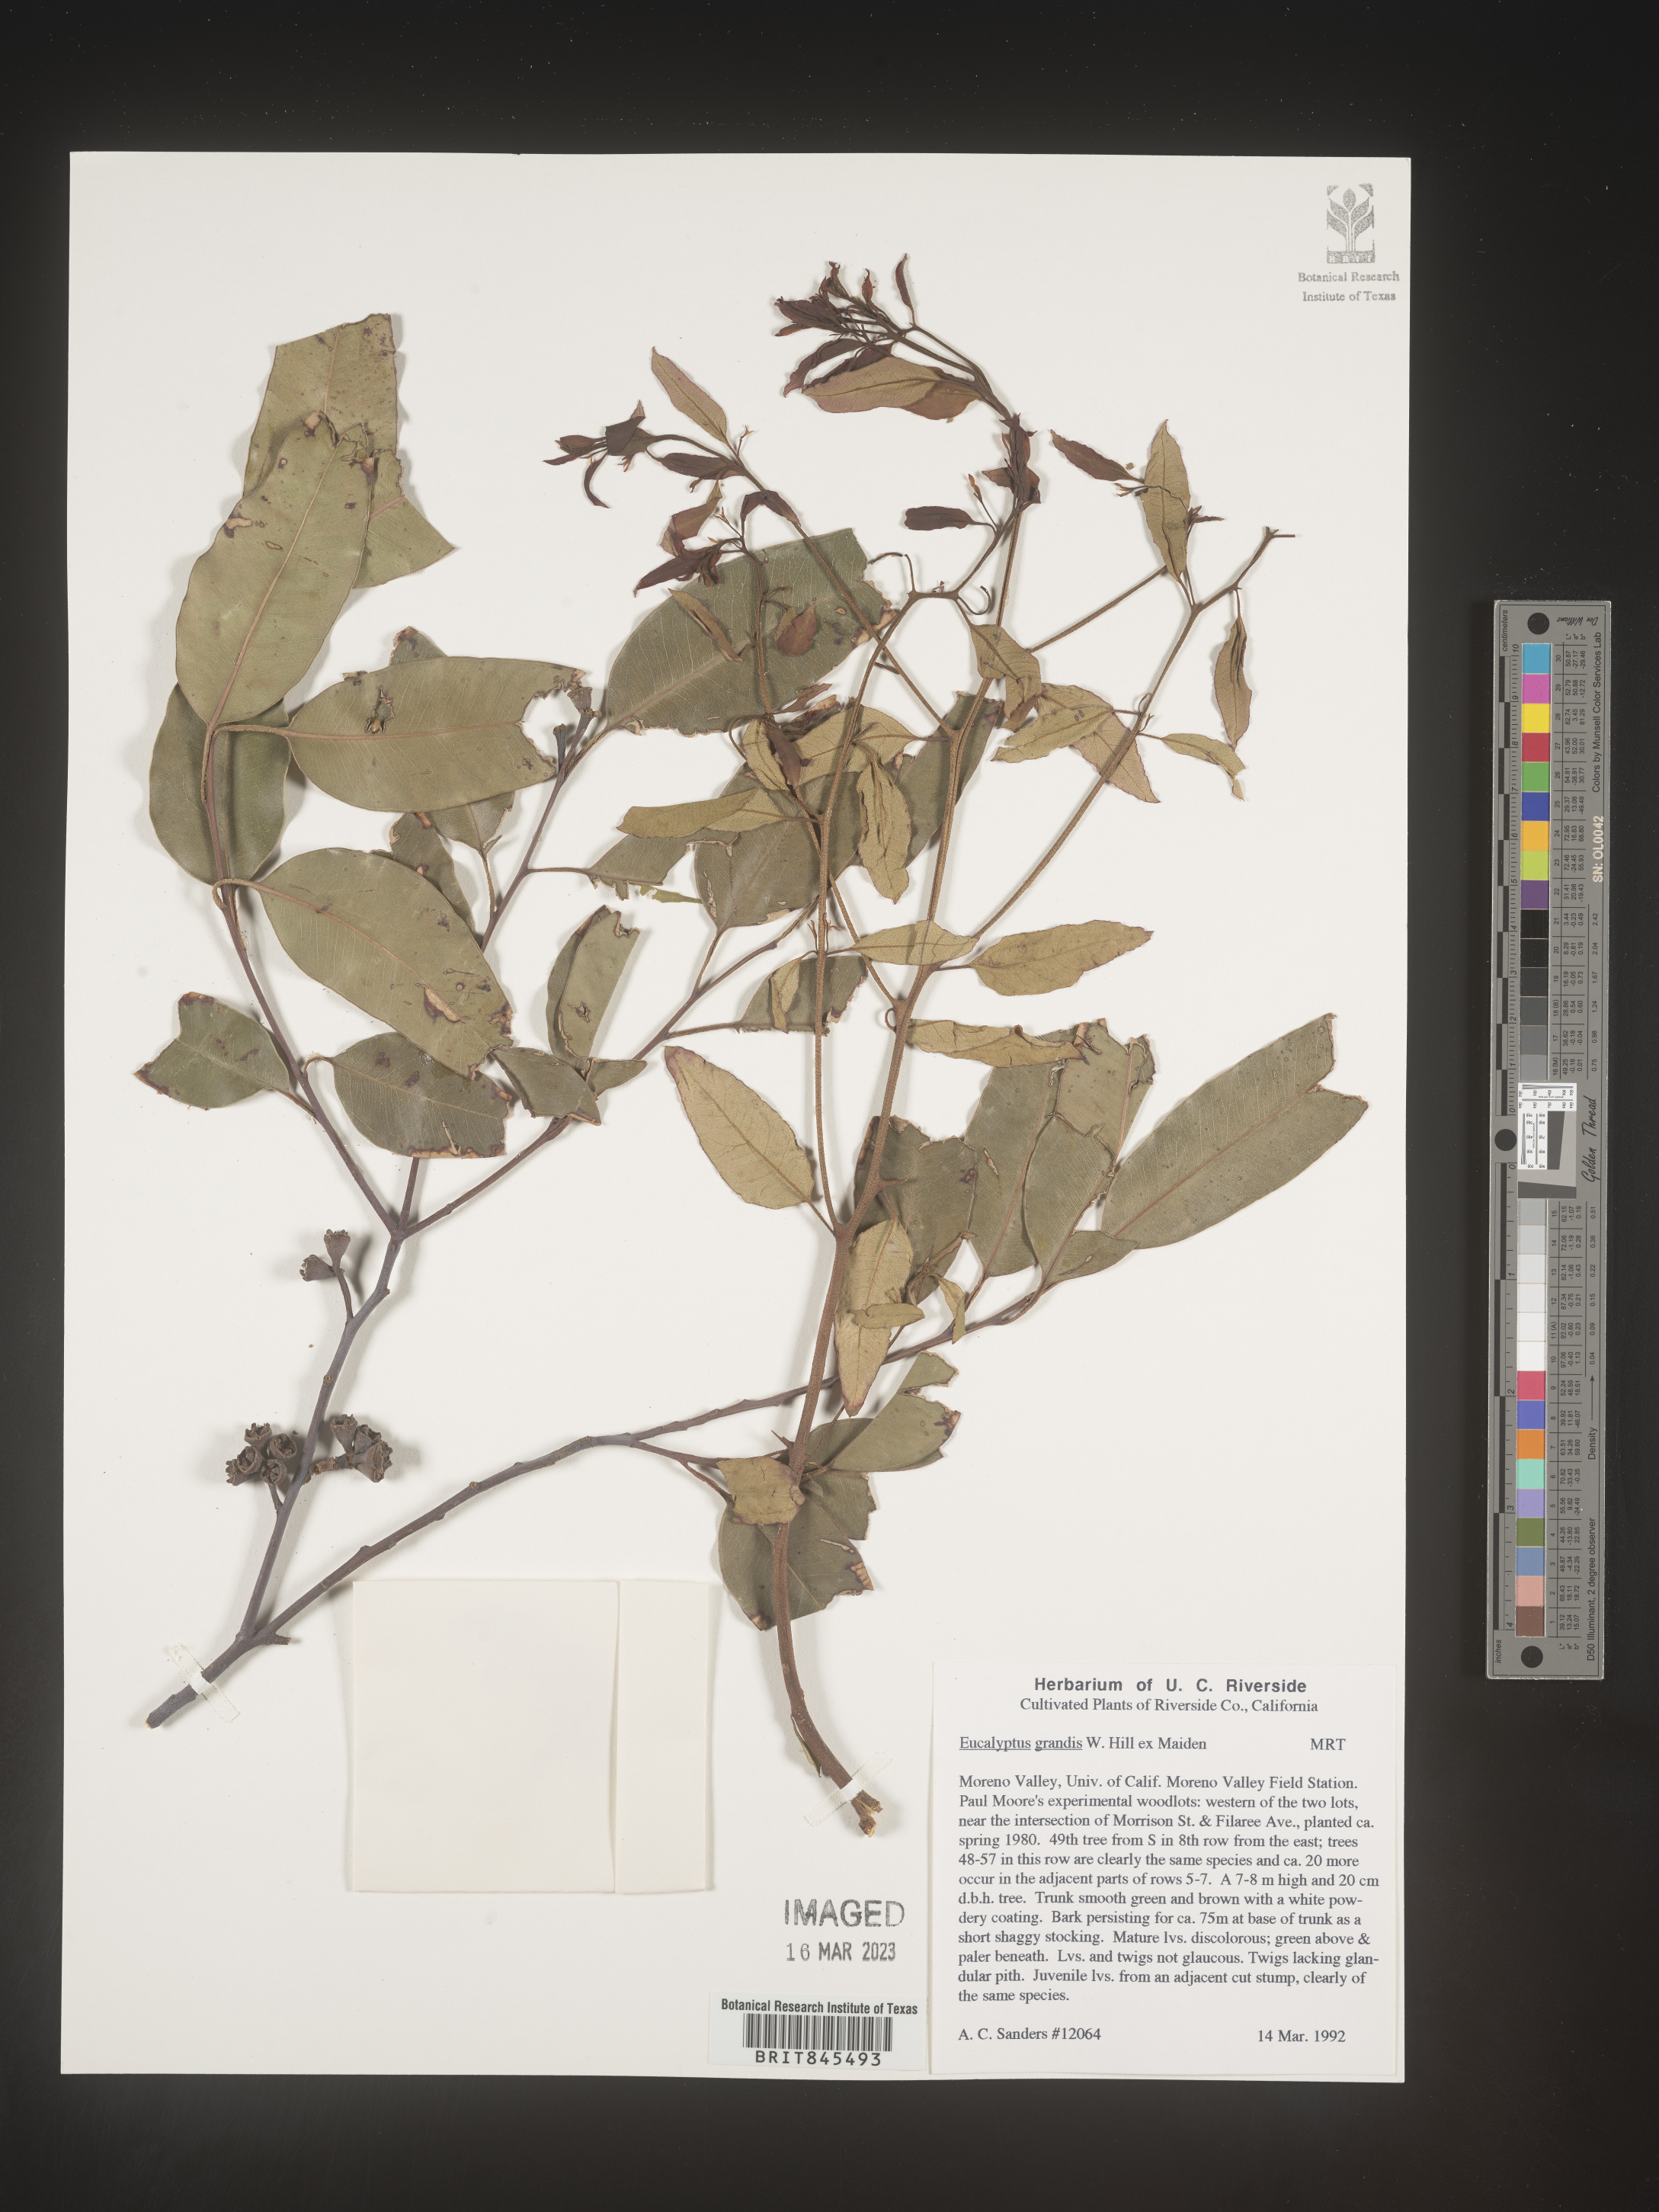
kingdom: Plantae
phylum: Tracheophyta
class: Magnoliopsida
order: Myrtales
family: Myrtaceae
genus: Eucalyptus
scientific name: Eucalyptus
